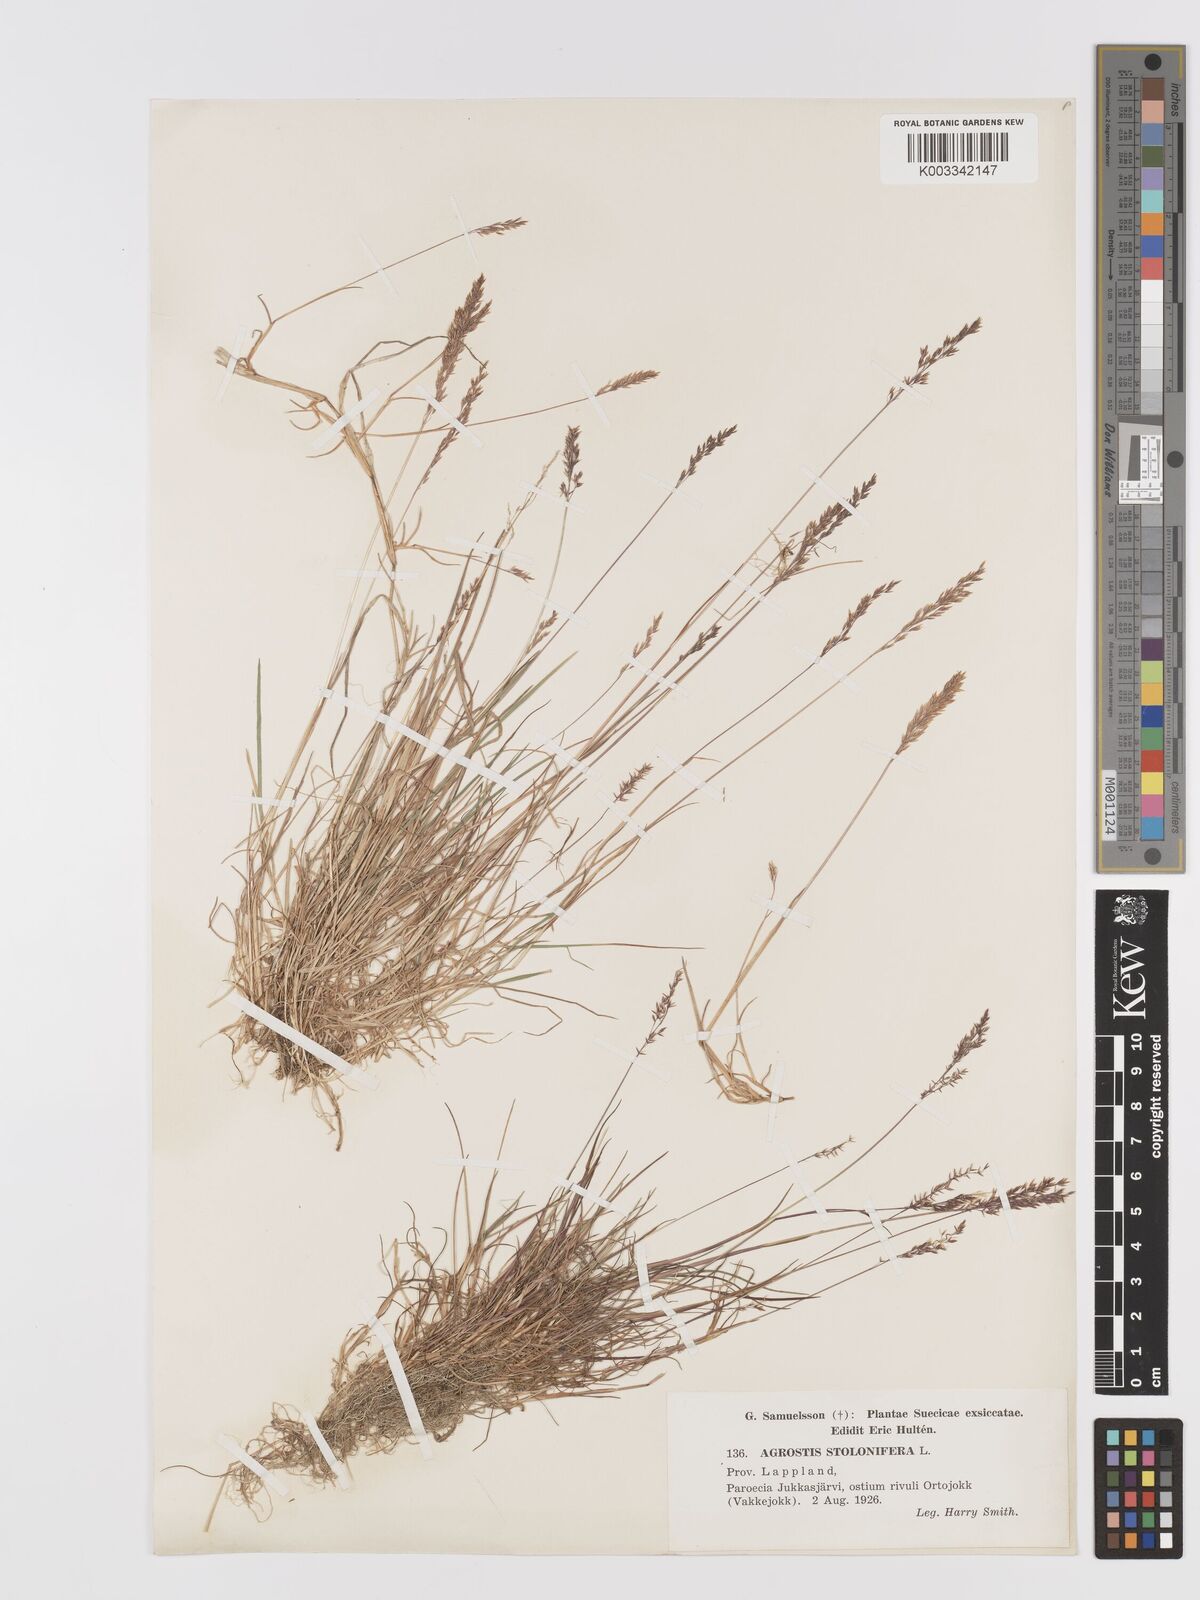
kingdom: Plantae
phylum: Tracheophyta
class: Liliopsida
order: Poales
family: Poaceae
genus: Agrostis
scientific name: Agrostis stolonifera
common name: Creeping bentgrass
